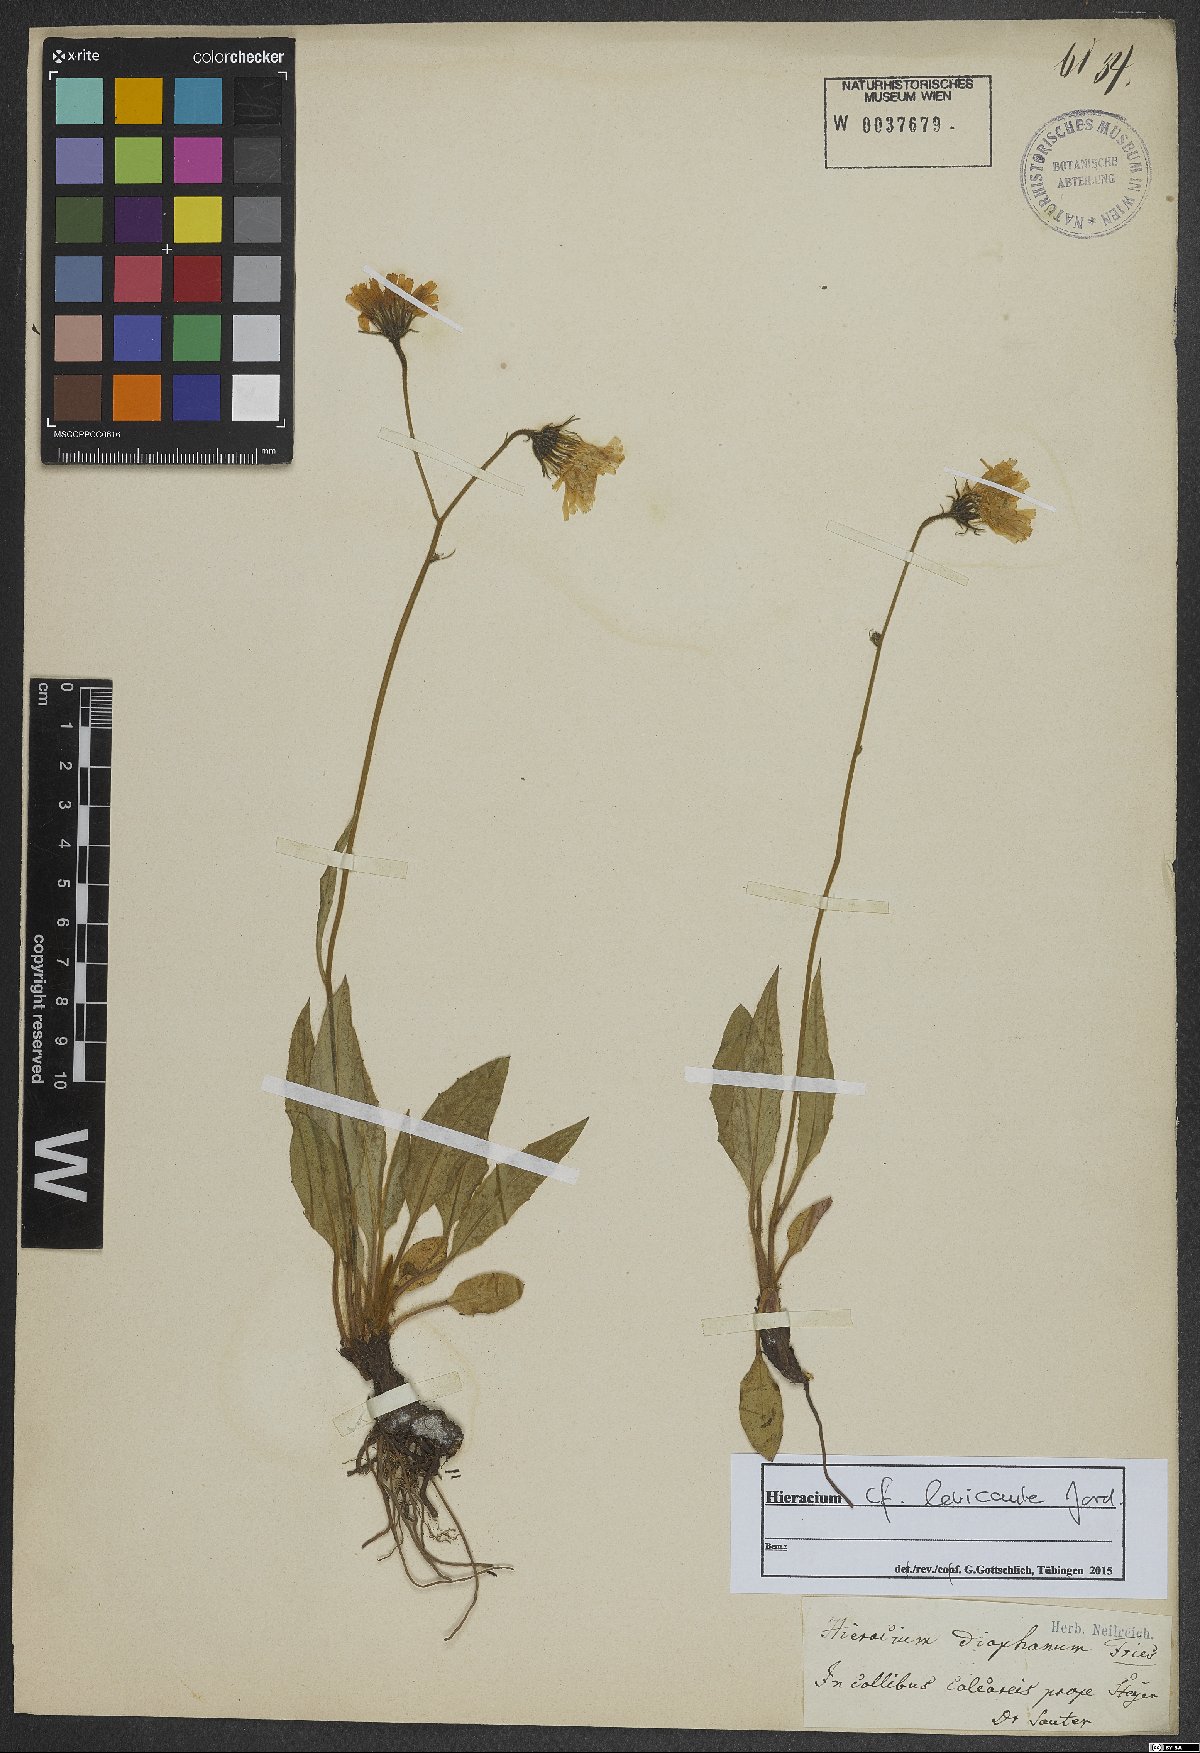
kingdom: Plantae
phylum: Tracheophyta
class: Magnoliopsida
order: Asterales
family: Asteraceae
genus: Hieracium
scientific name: Hieracium levicaule
